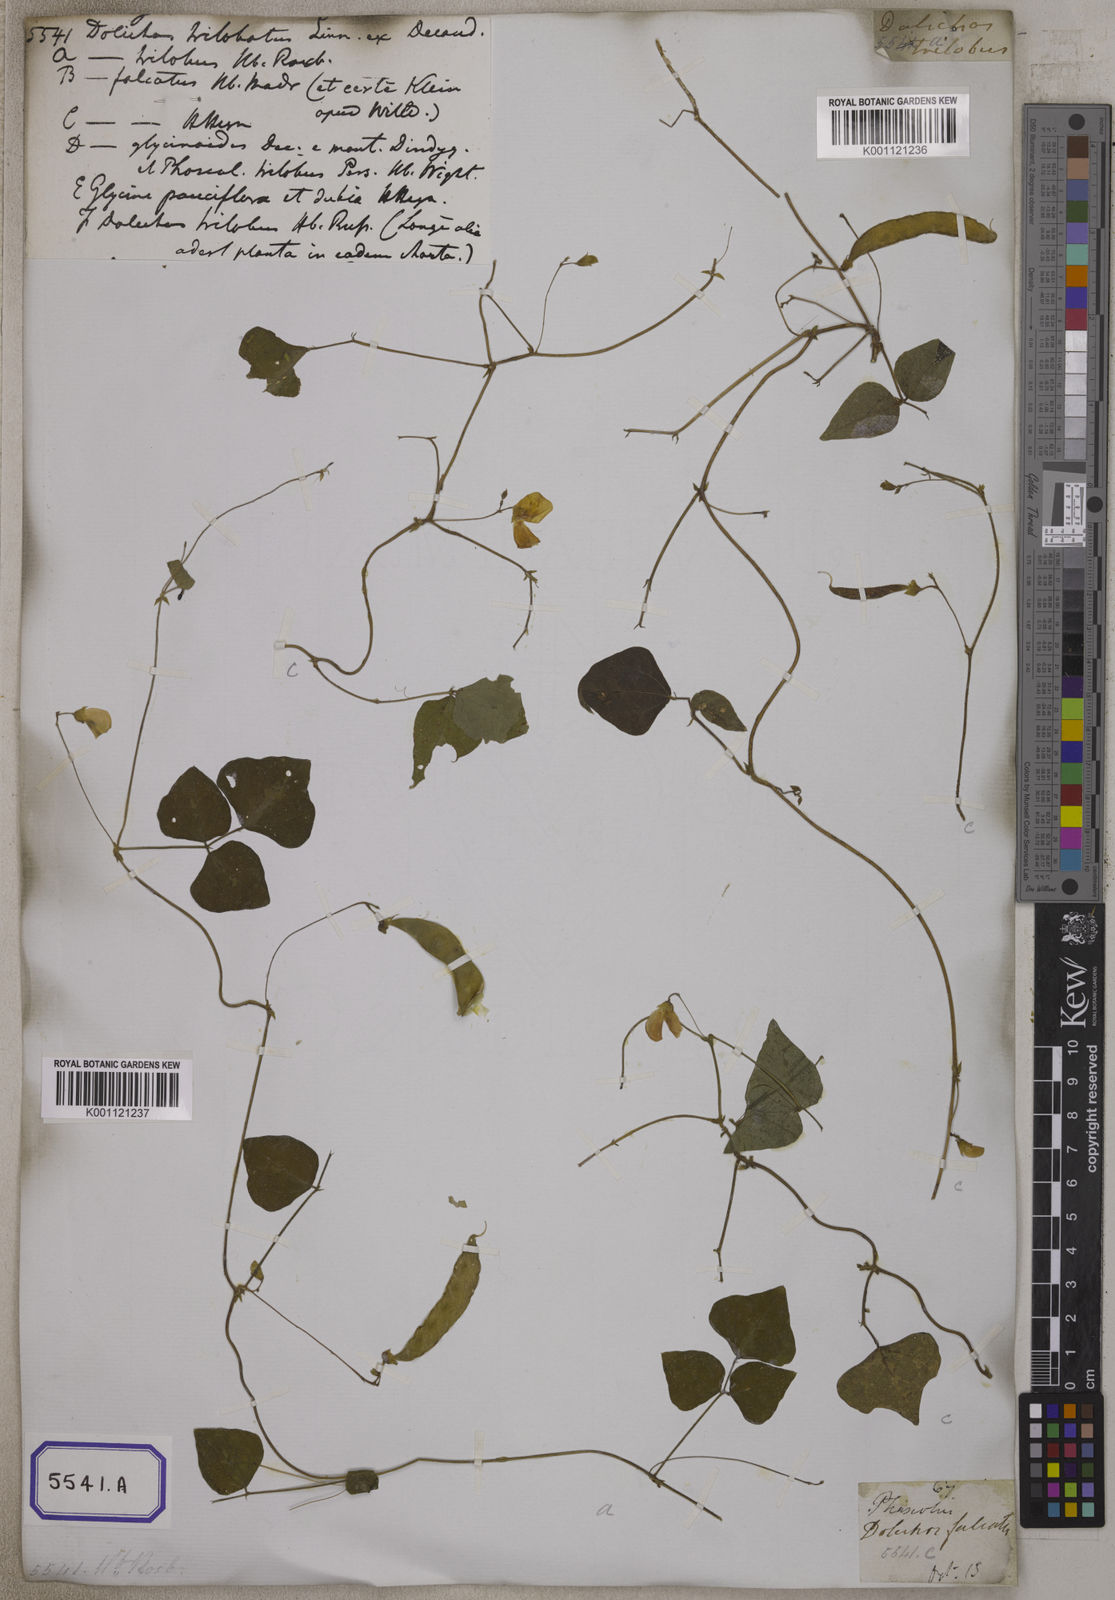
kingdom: Plantae
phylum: Tracheophyta
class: Magnoliopsida
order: Fabales
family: Fabaceae
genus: Dolichos
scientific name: Dolichos
